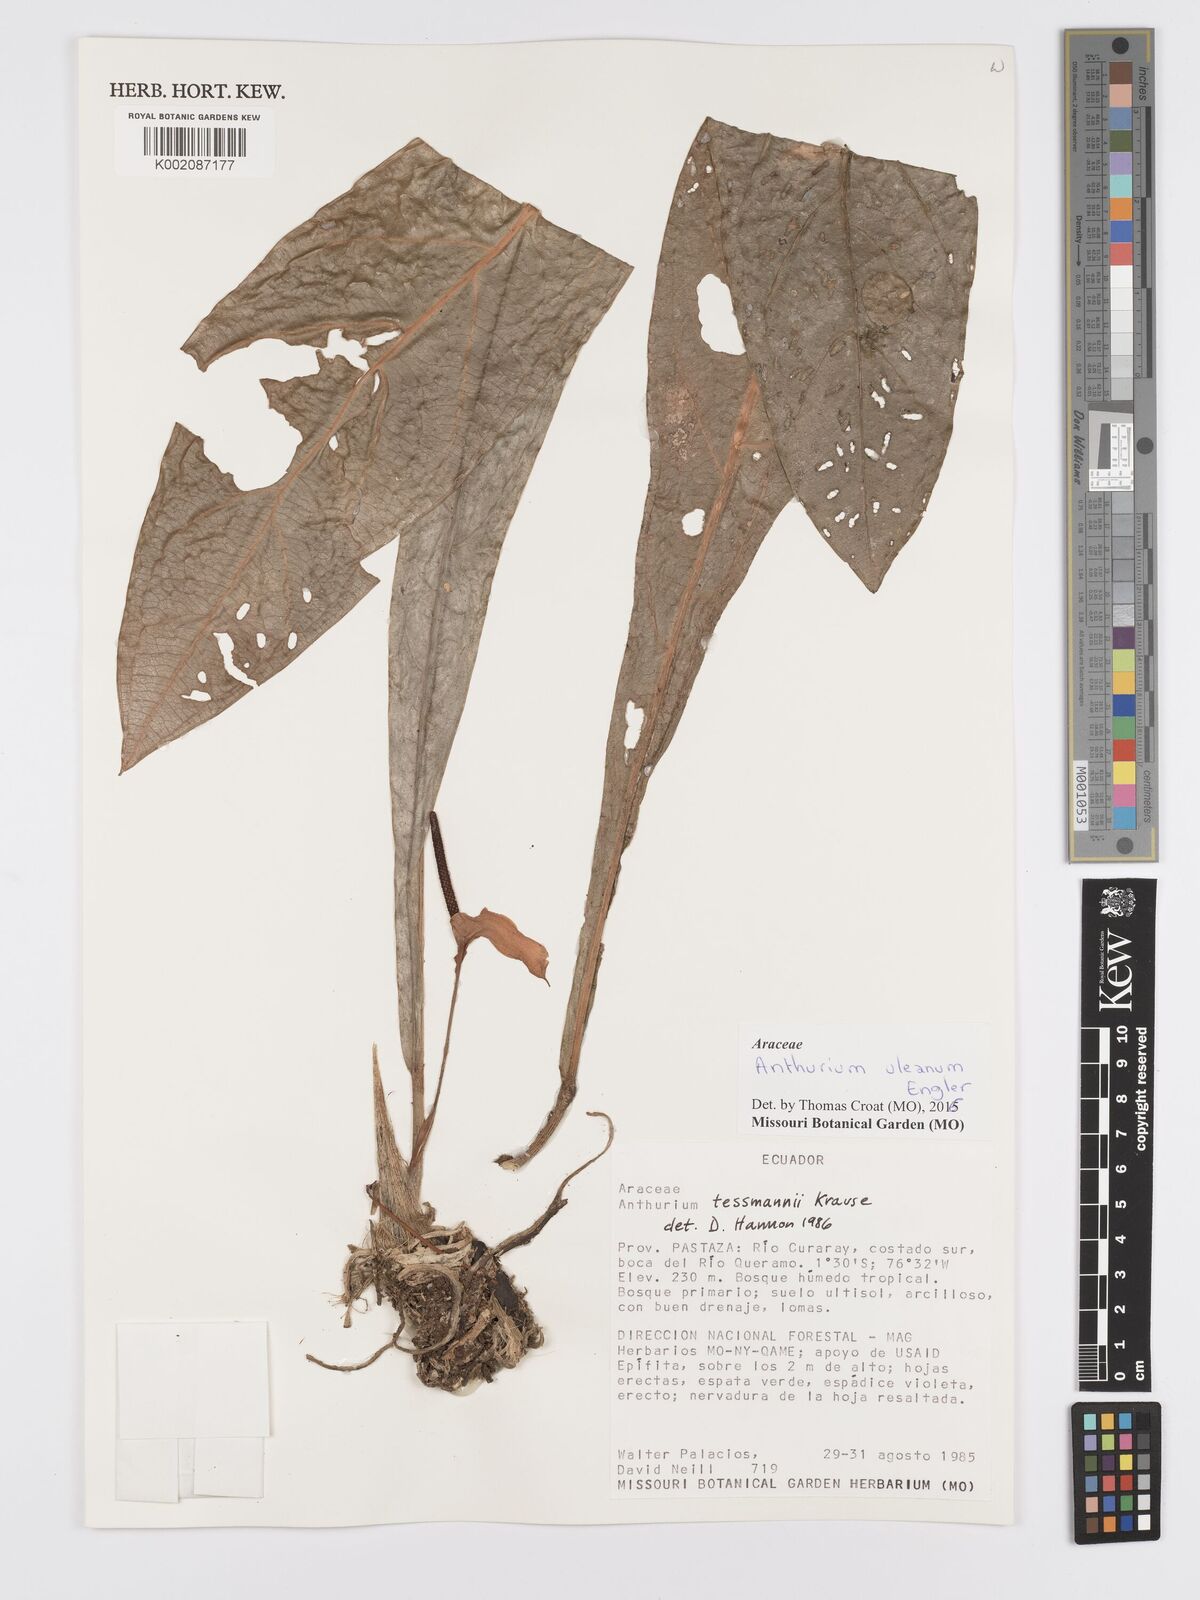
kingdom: Plantae
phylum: Tracheophyta
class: Liliopsida
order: Alismatales
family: Araceae
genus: Anthurium
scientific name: Anthurium uleanum
